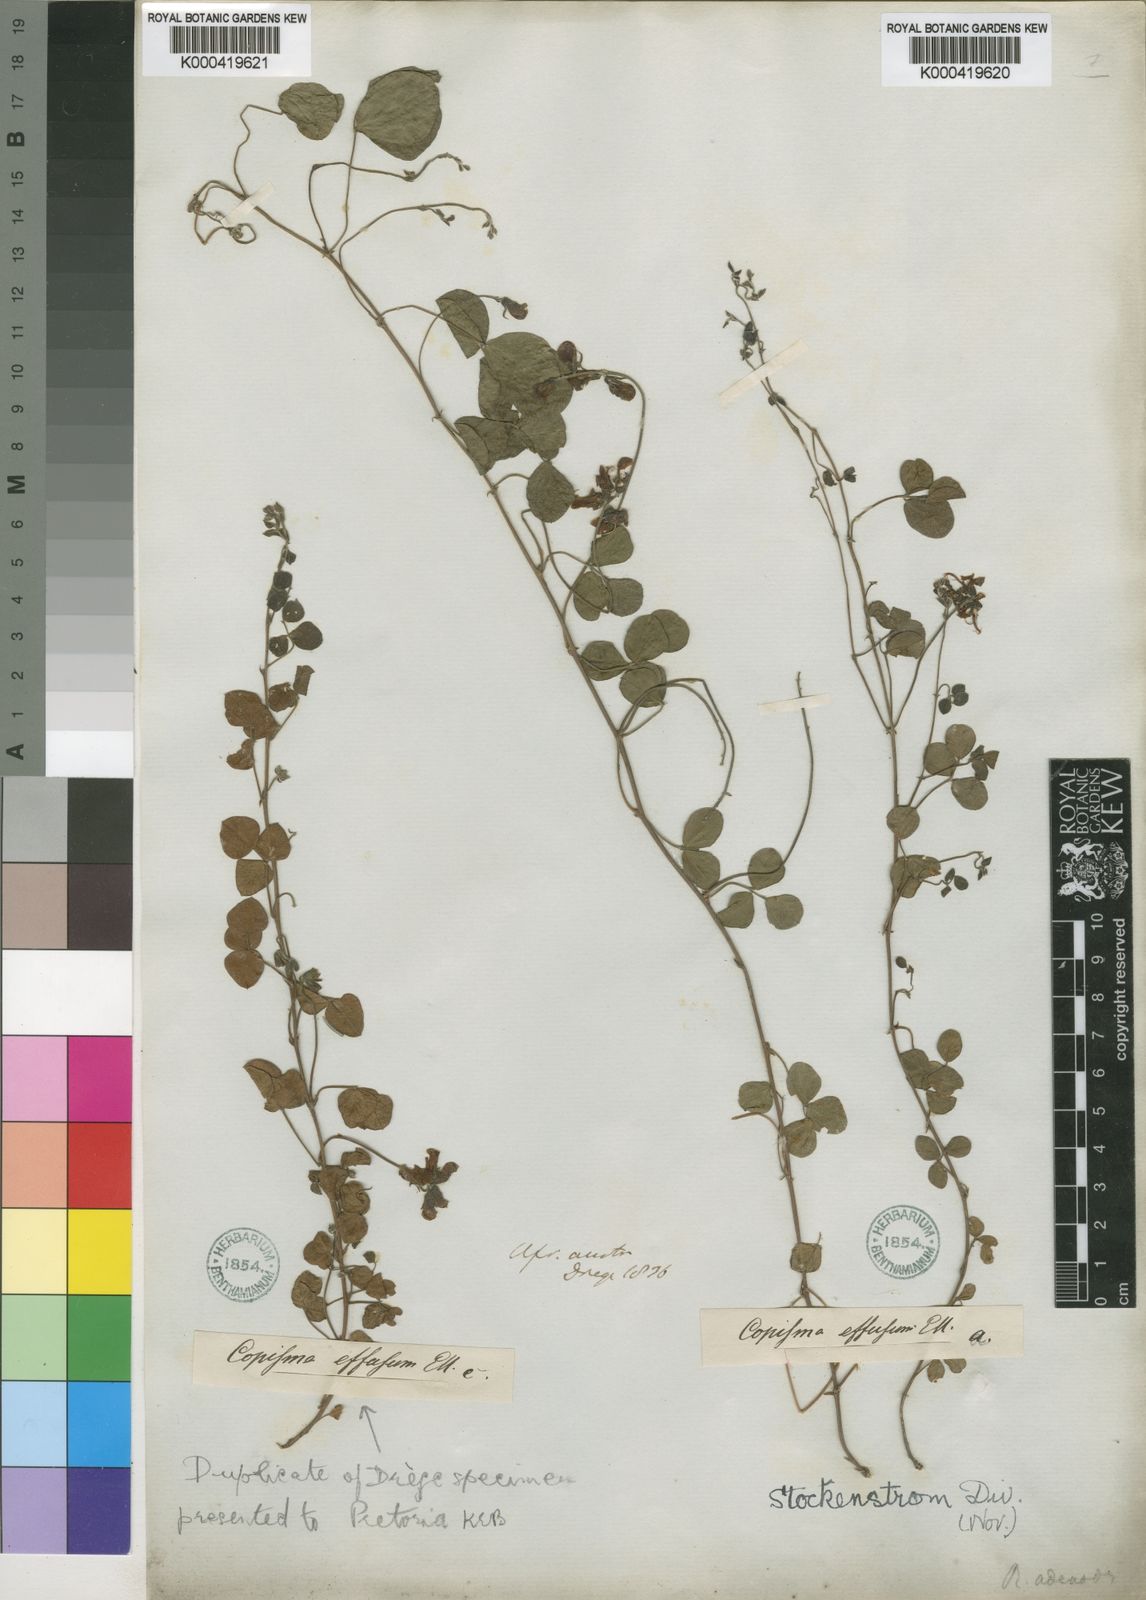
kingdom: Plantae
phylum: Tracheophyta
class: Magnoliopsida
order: Fabales
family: Fabaceae
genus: Rhynchosia
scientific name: Rhynchosia adenodes
